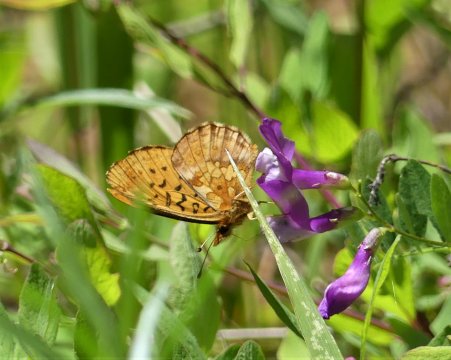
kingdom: Animalia
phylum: Arthropoda
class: Insecta
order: Lepidoptera
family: Nymphalidae
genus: Boloria
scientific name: Boloria epithore
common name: Pacific Fritillary
